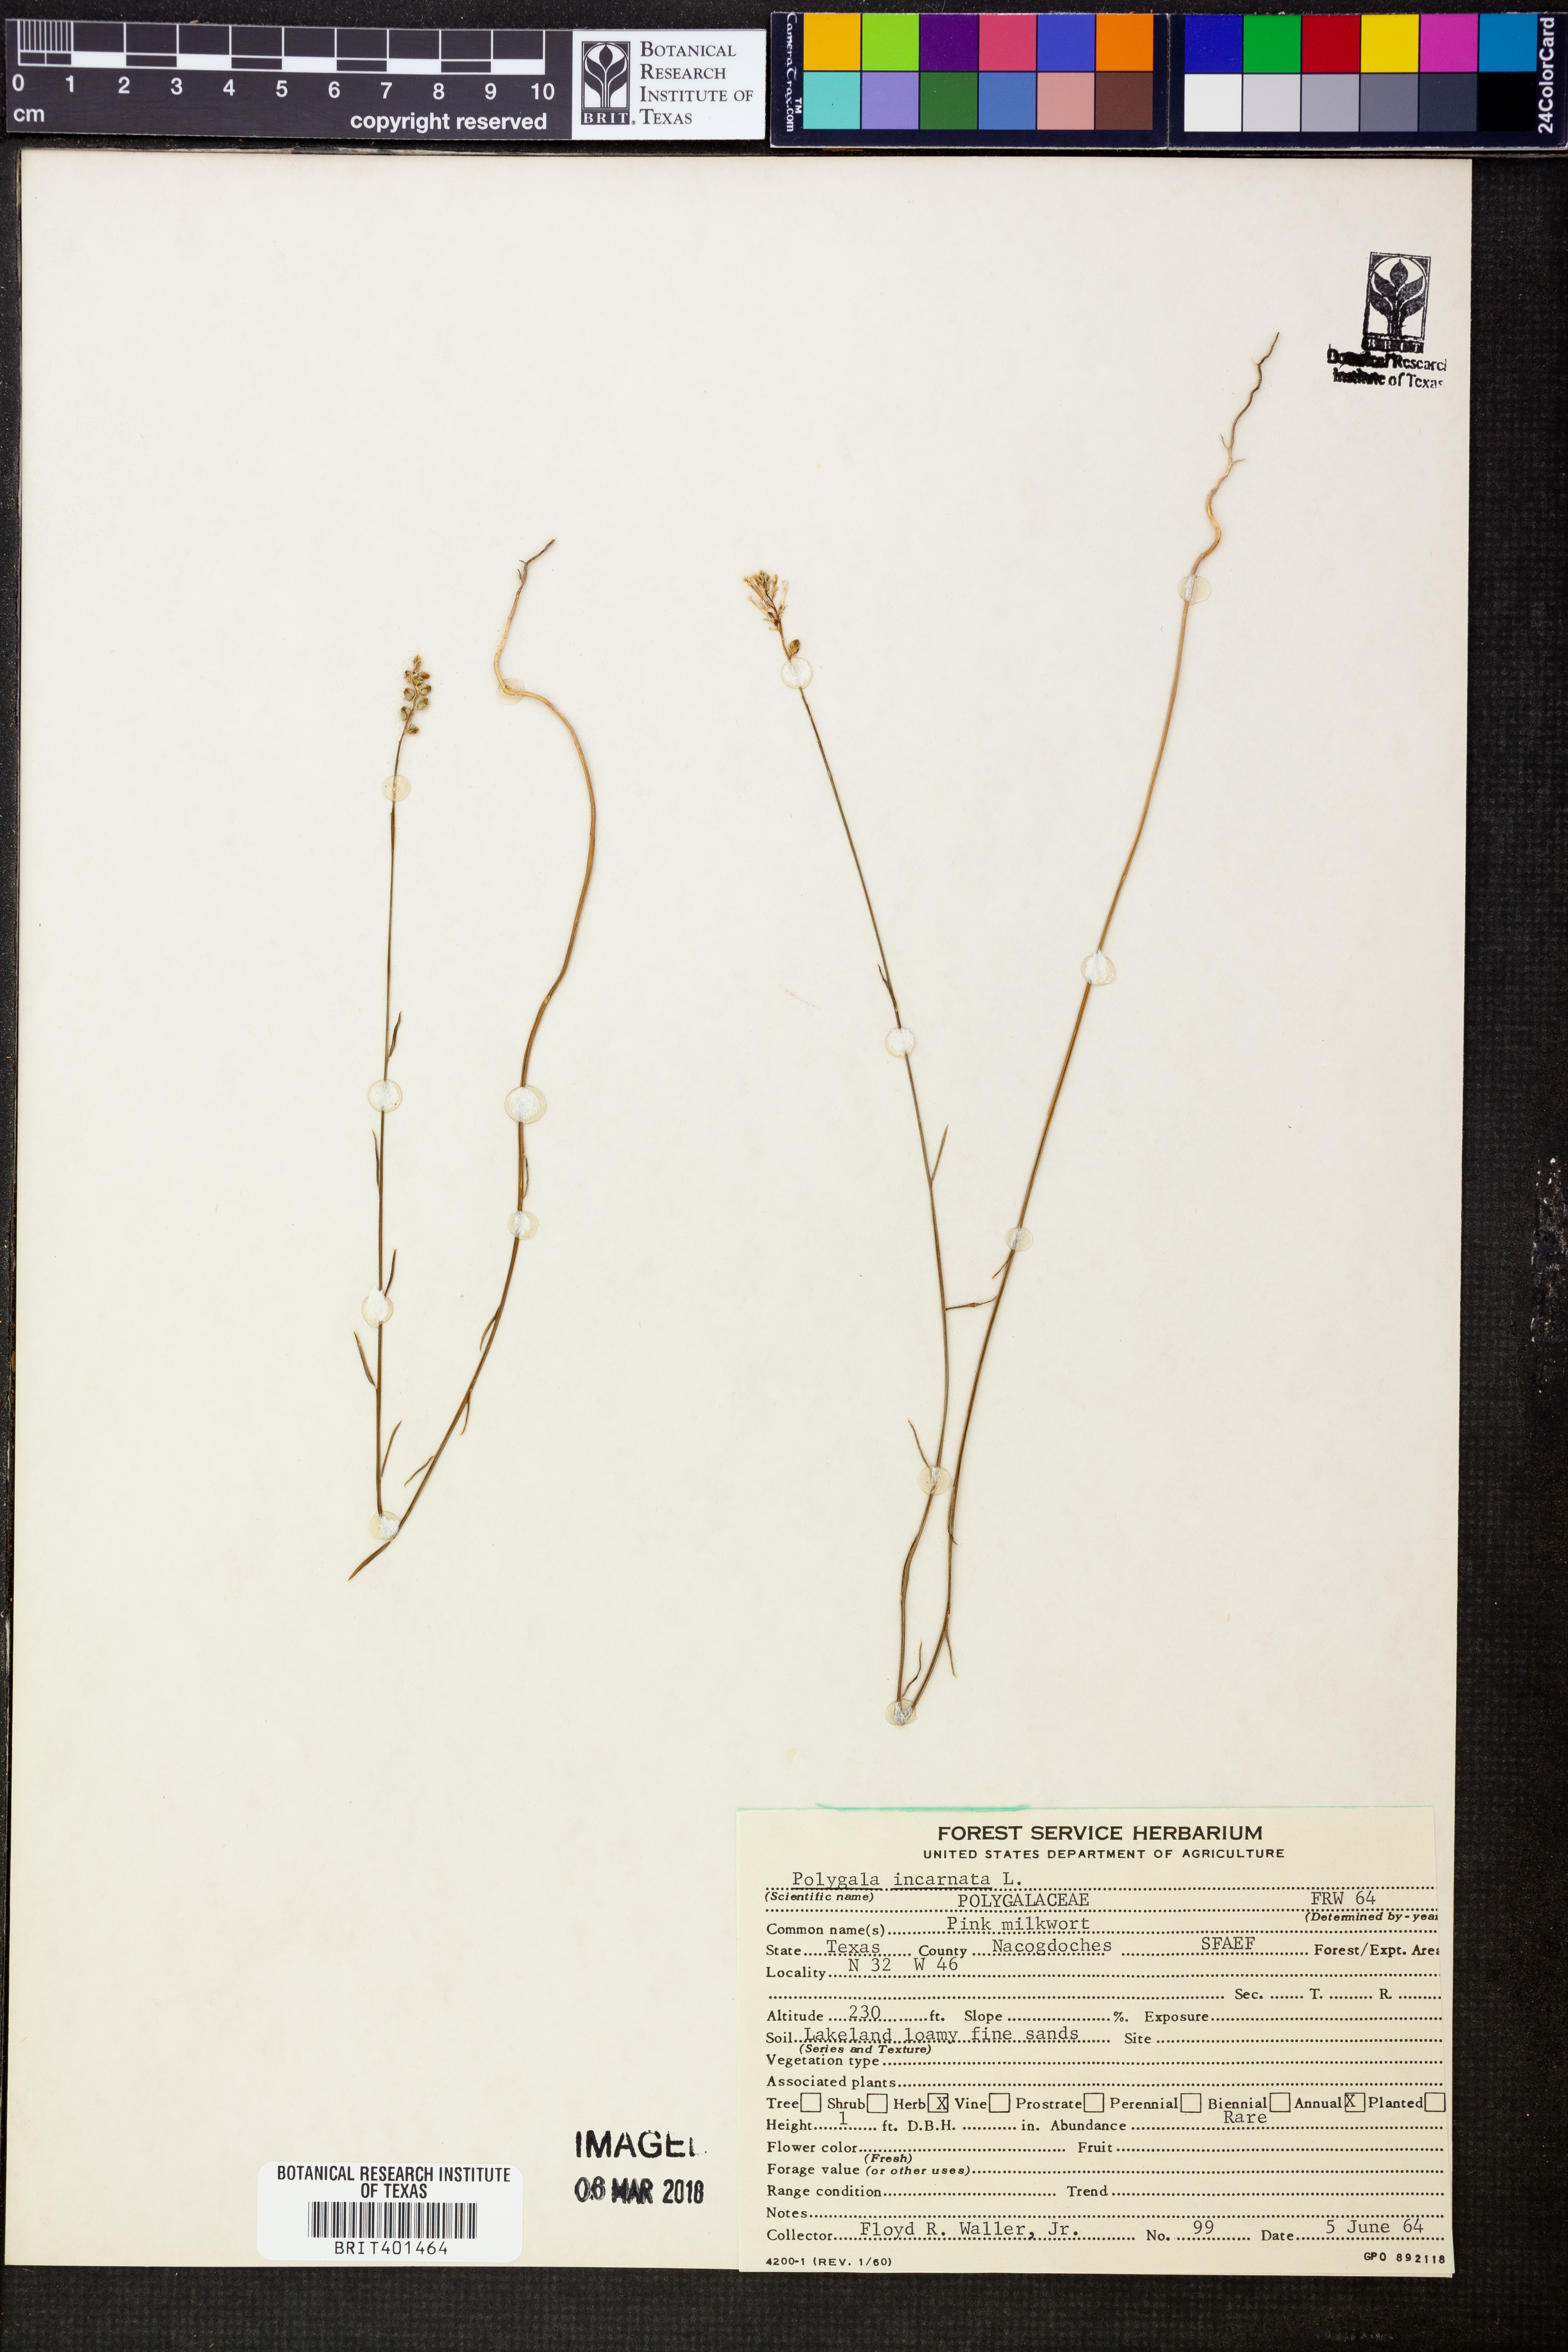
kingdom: Plantae
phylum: Tracheophyta
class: Magnoliopsida
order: Fabales
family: Polygalaceae
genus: Polygala
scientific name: Polygala incarnata
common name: Pink milkwort
